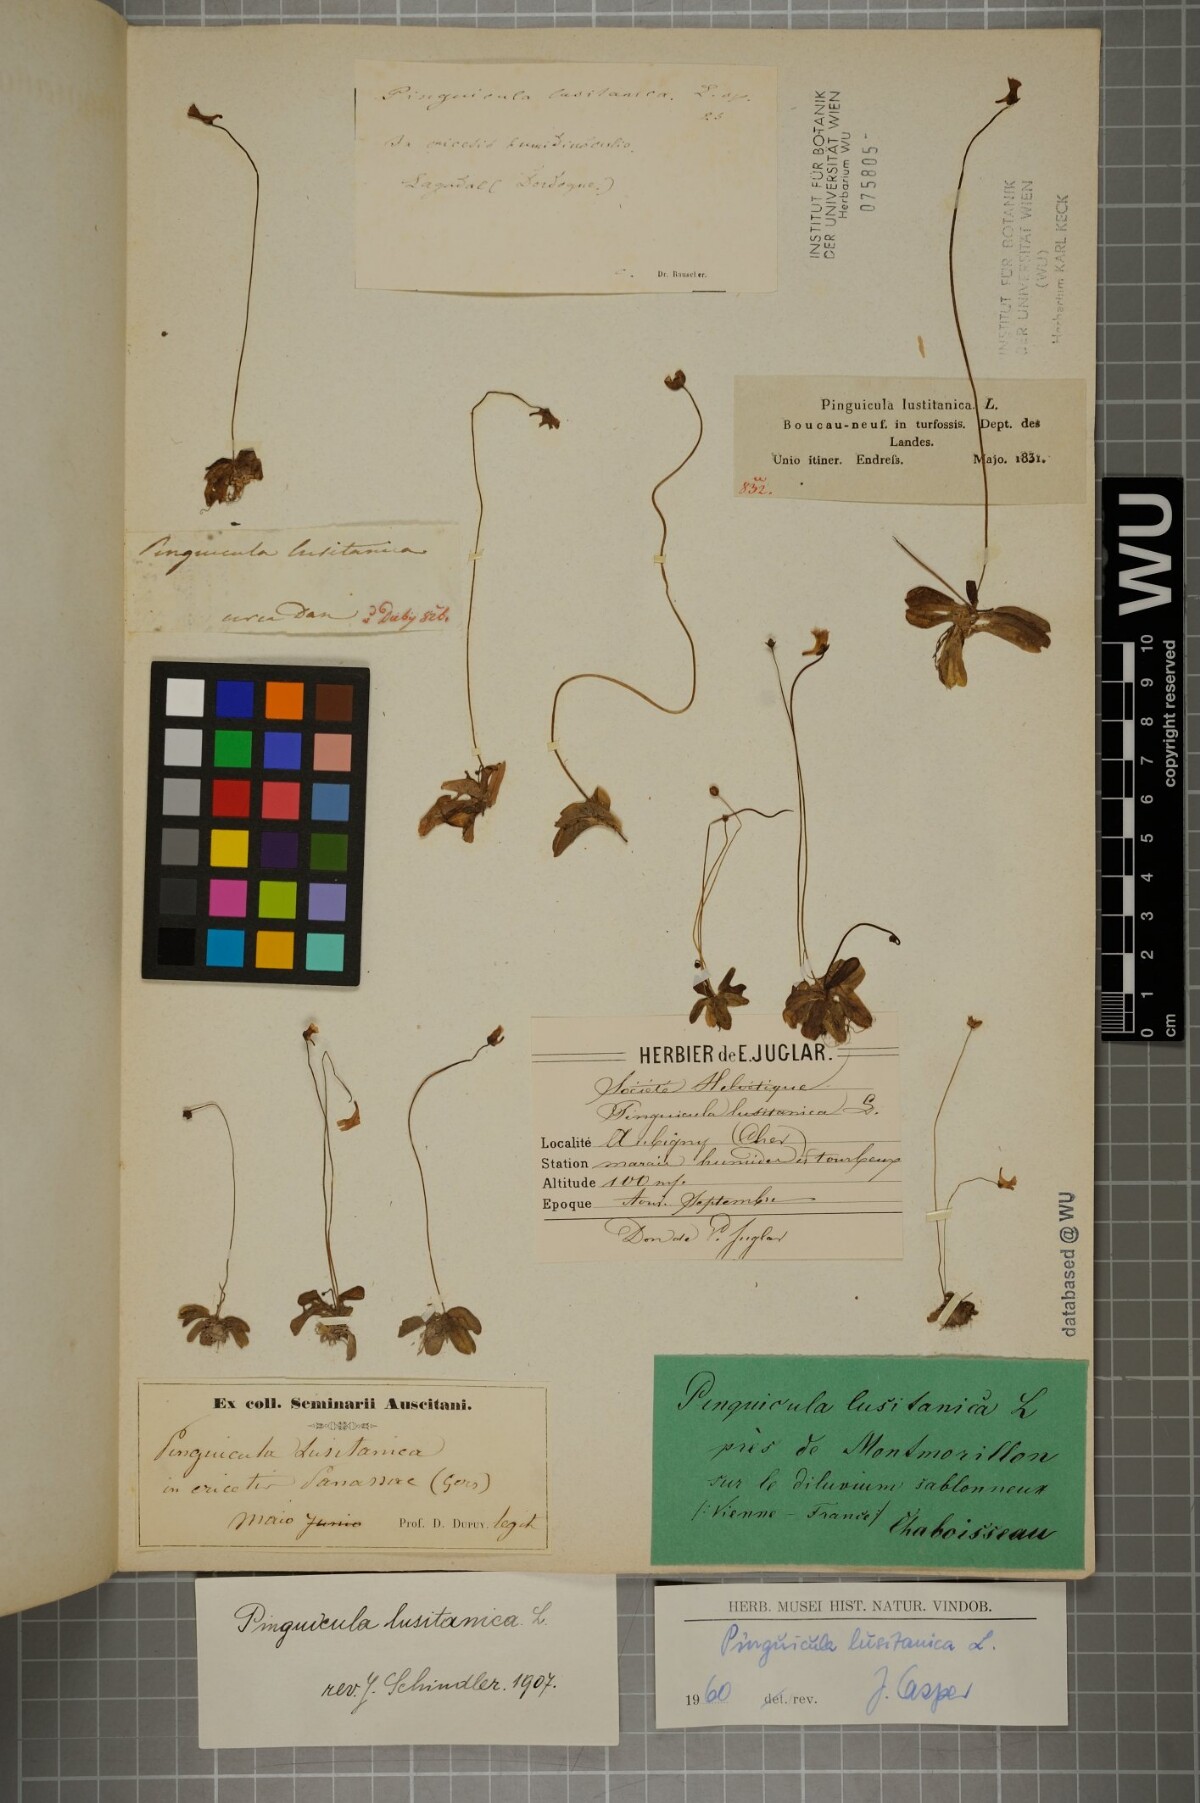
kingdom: Plantae
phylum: Tracheophyta
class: Magnoliopsida
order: Lamiales
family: Lentibulariaceae
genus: Pinguicula
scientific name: Pinguicula lusitanica
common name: Pale butterwort
